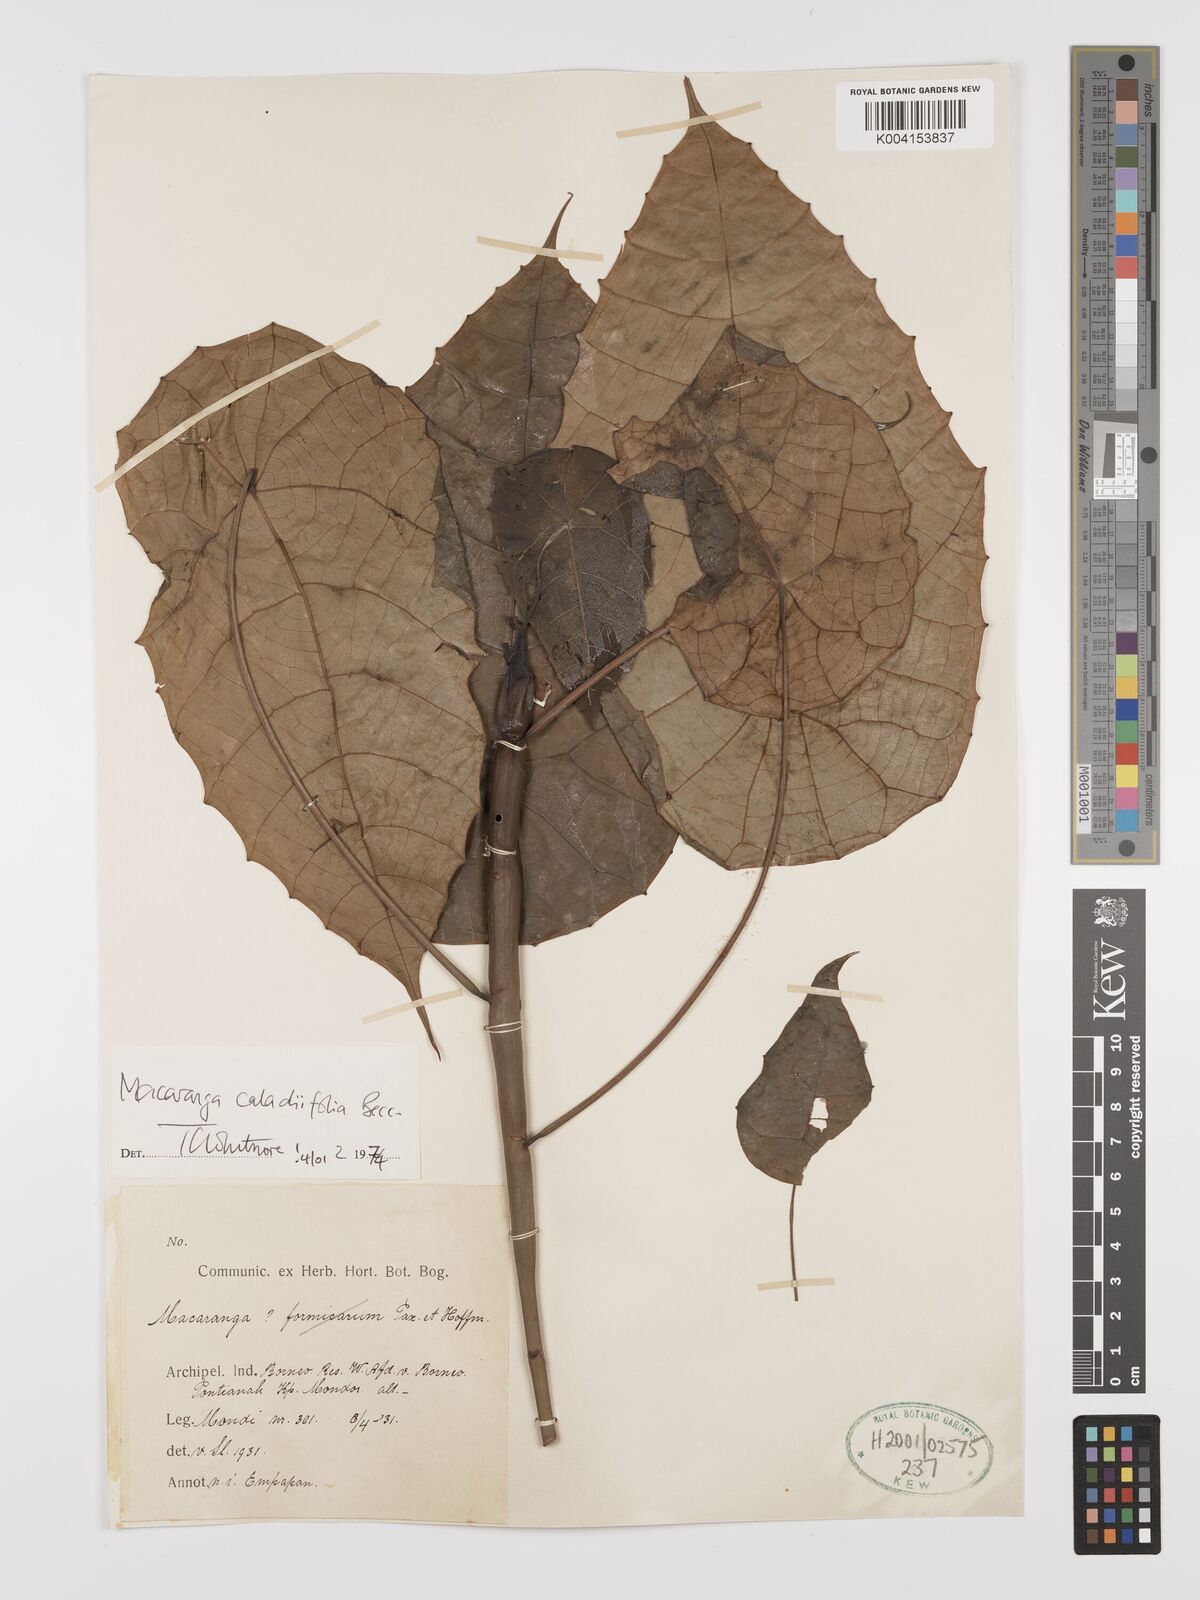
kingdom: Plantae
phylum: Tracheophyta
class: Magnoliopsida
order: Malpighiales
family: Euphorbiaceae
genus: Macaranga
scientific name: Macaranga caladiifolia
